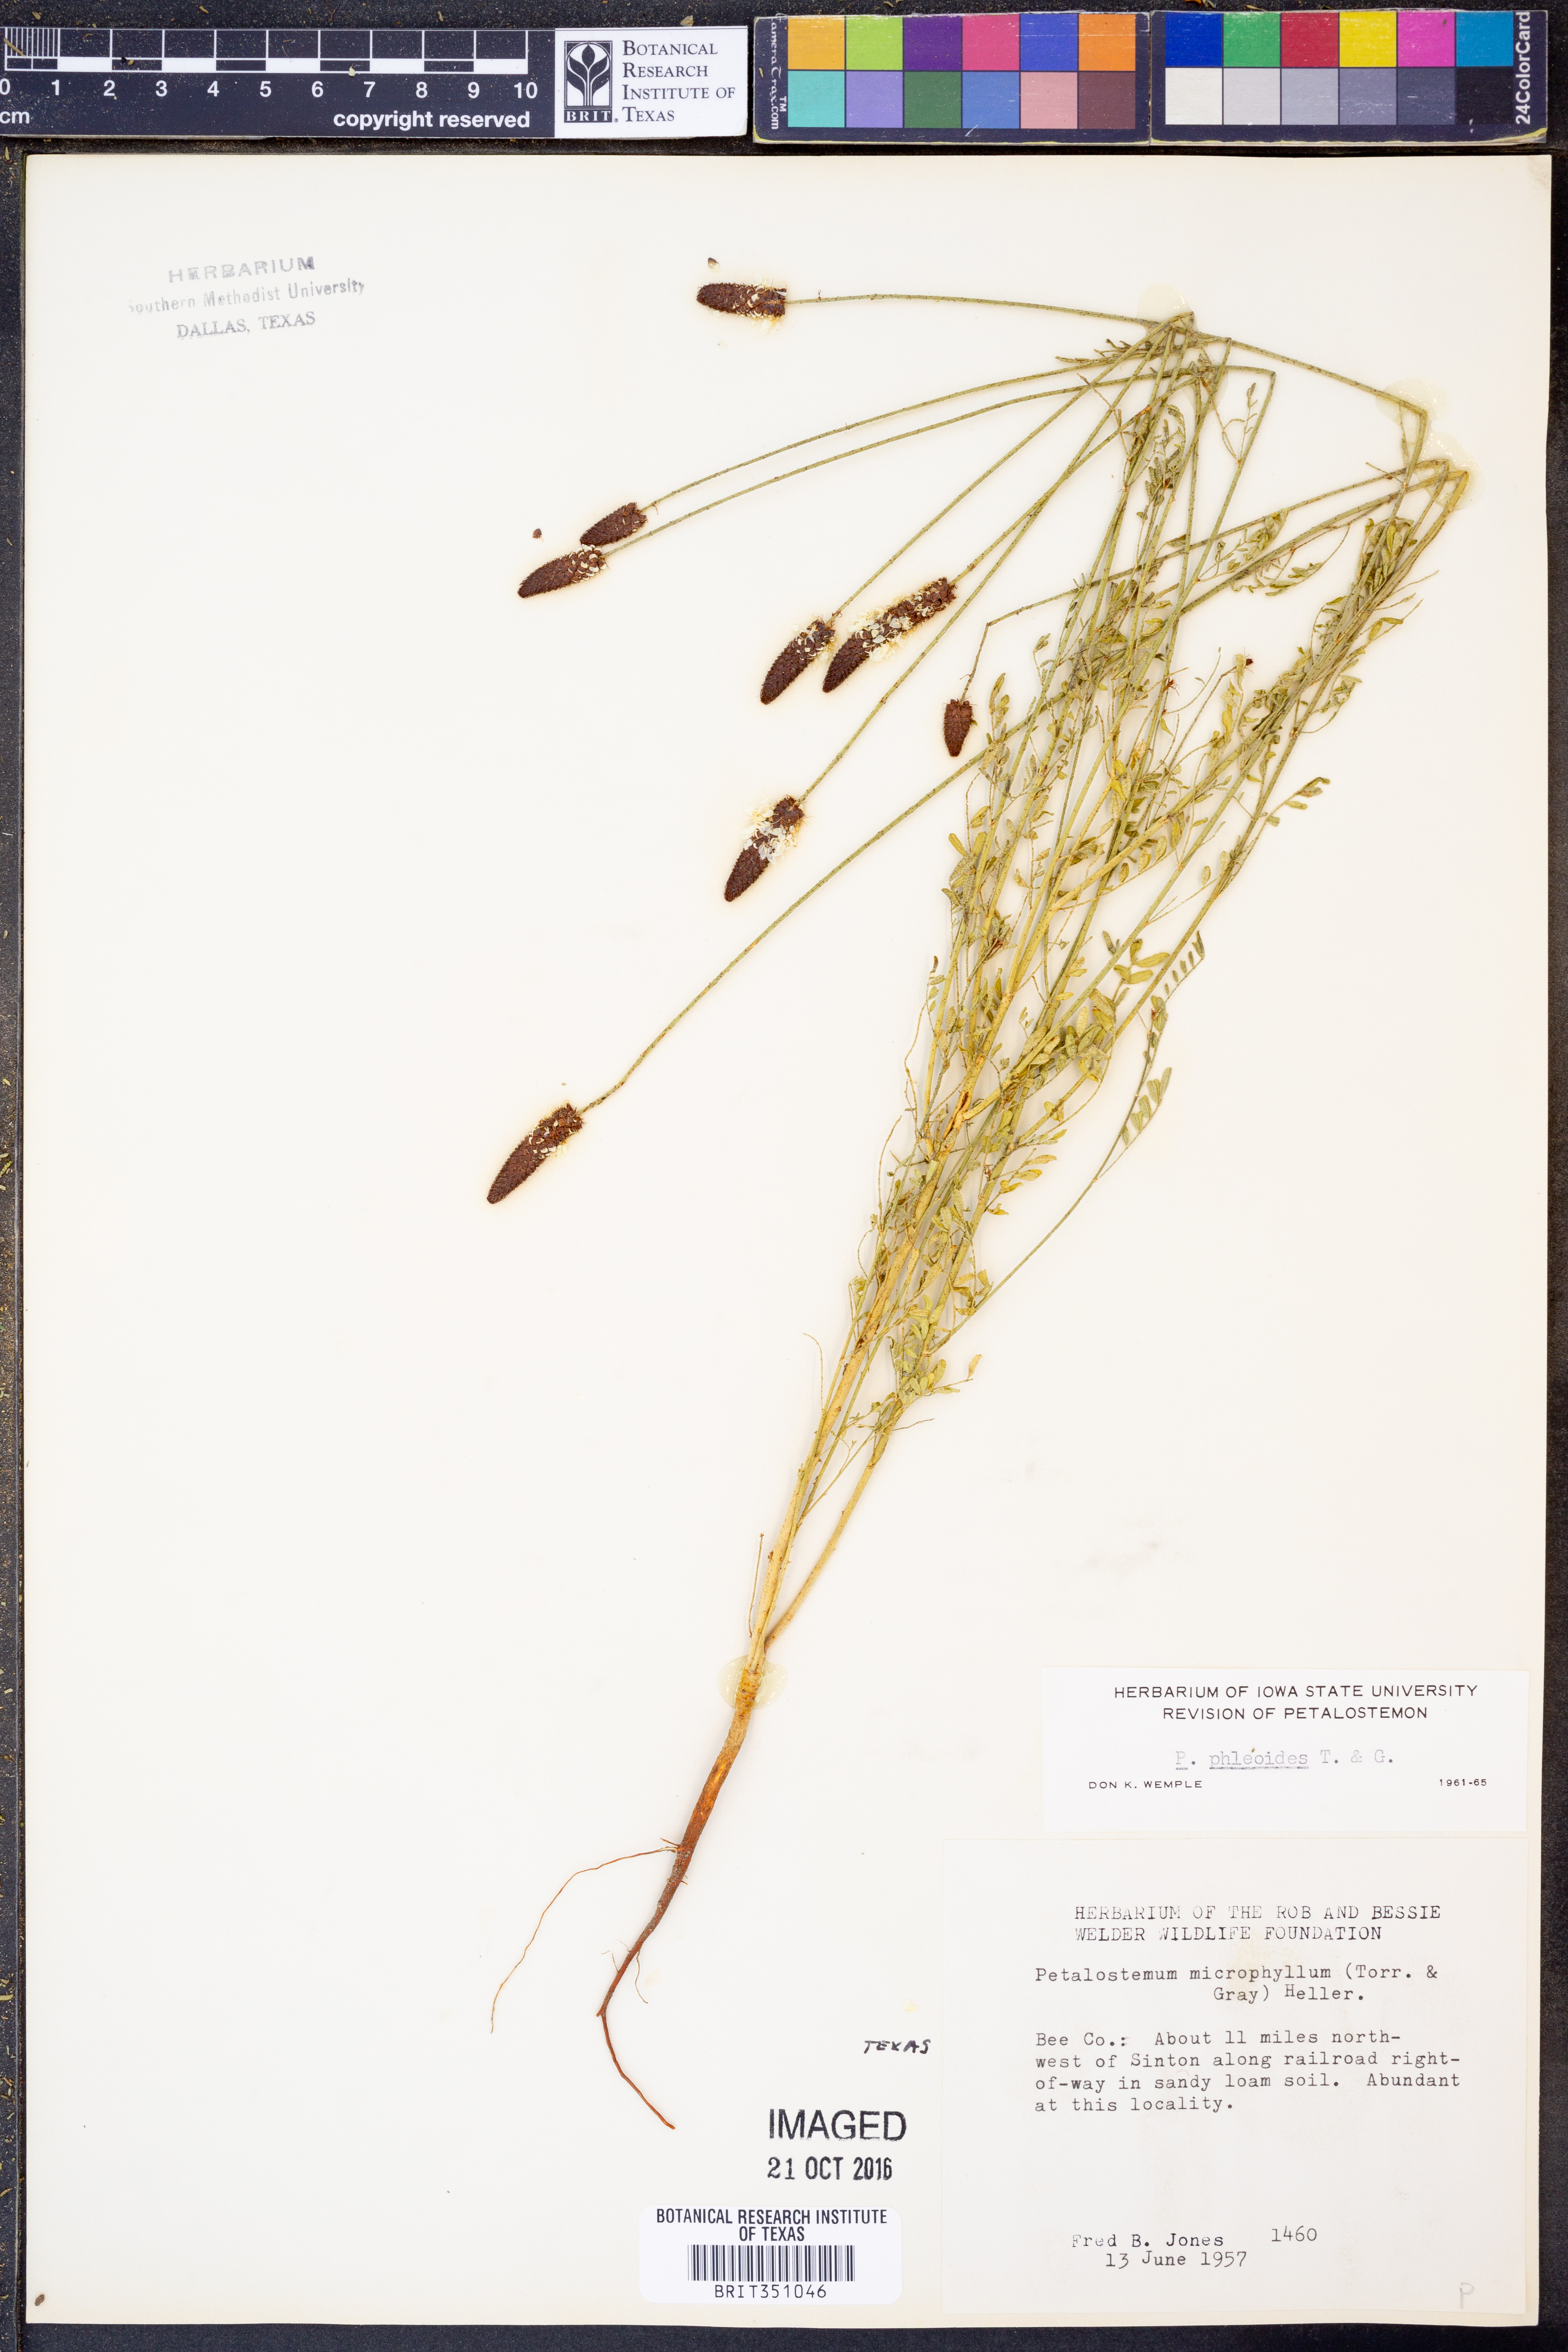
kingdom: Plantae
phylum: Tracheophyta
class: Magnoliopsida
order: Fabales
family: Fabaceae
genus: Dalea
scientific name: Dalea phleoides
